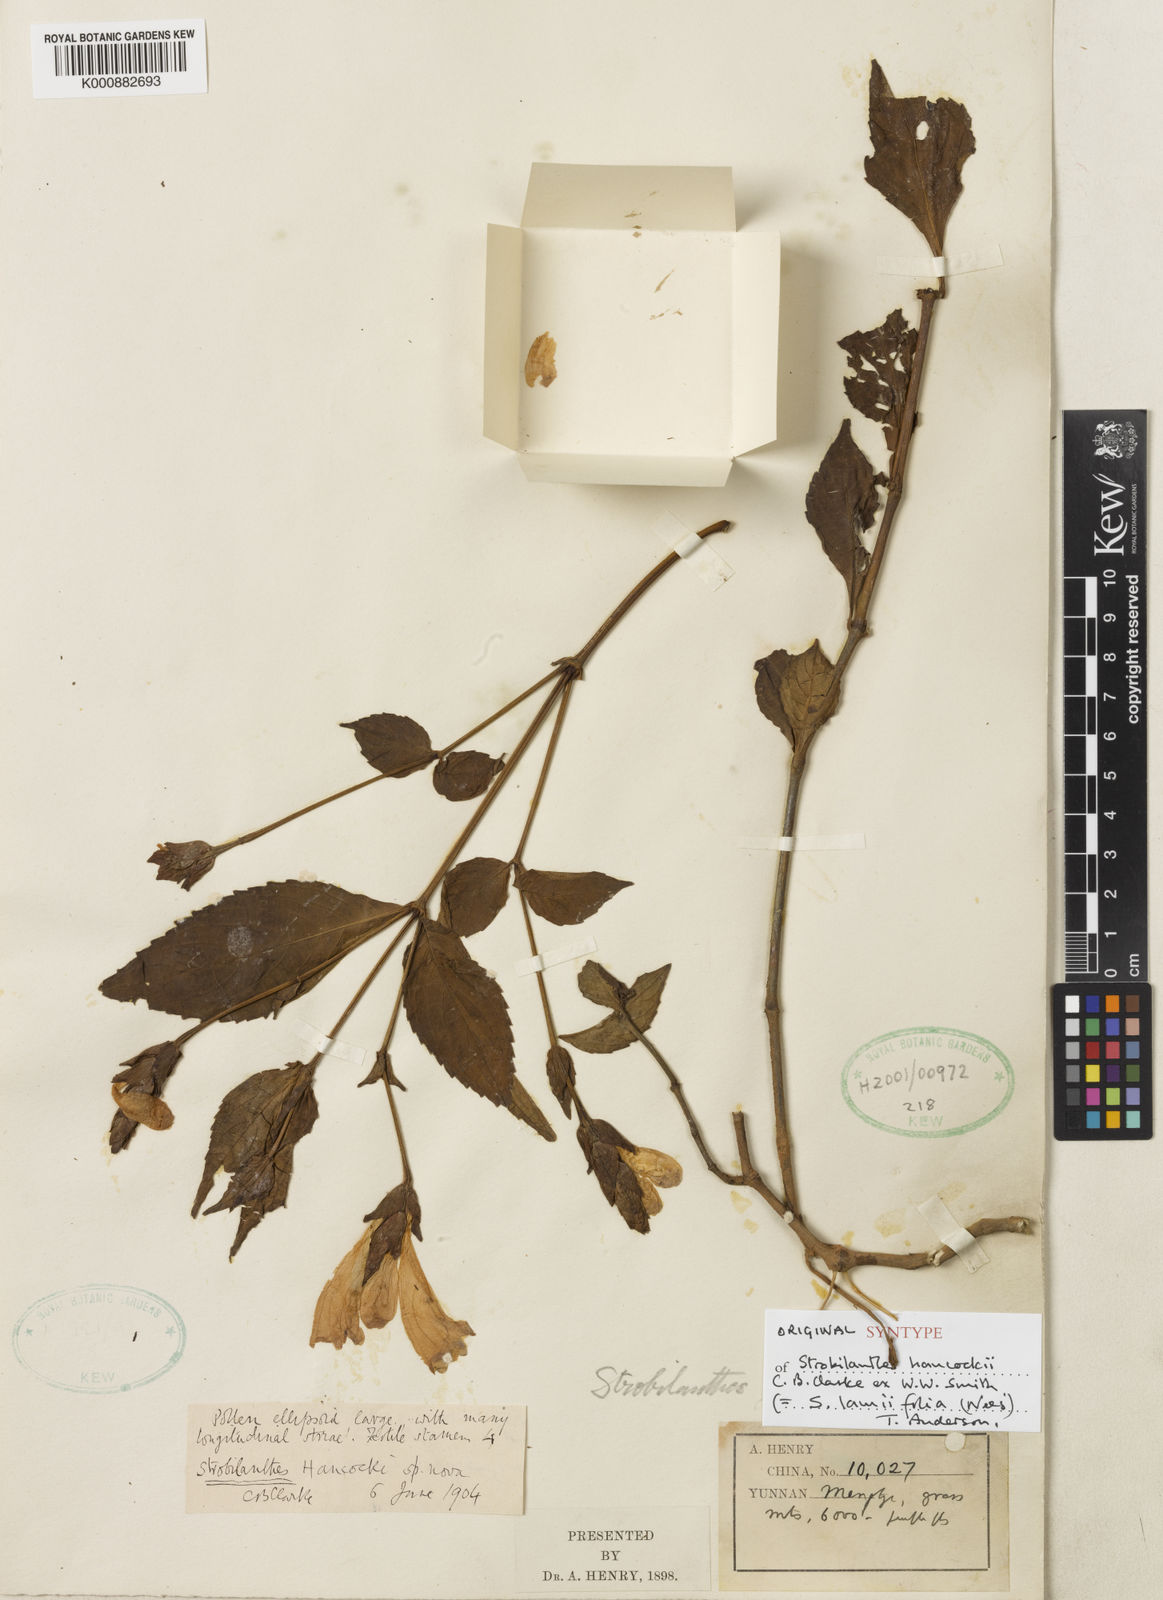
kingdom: Plantae
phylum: Tracheophyta
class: Magnoliopsida
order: Lamiales
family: Acanthaceae
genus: Strobilanthes
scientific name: Strobilanthes lamiifolia
